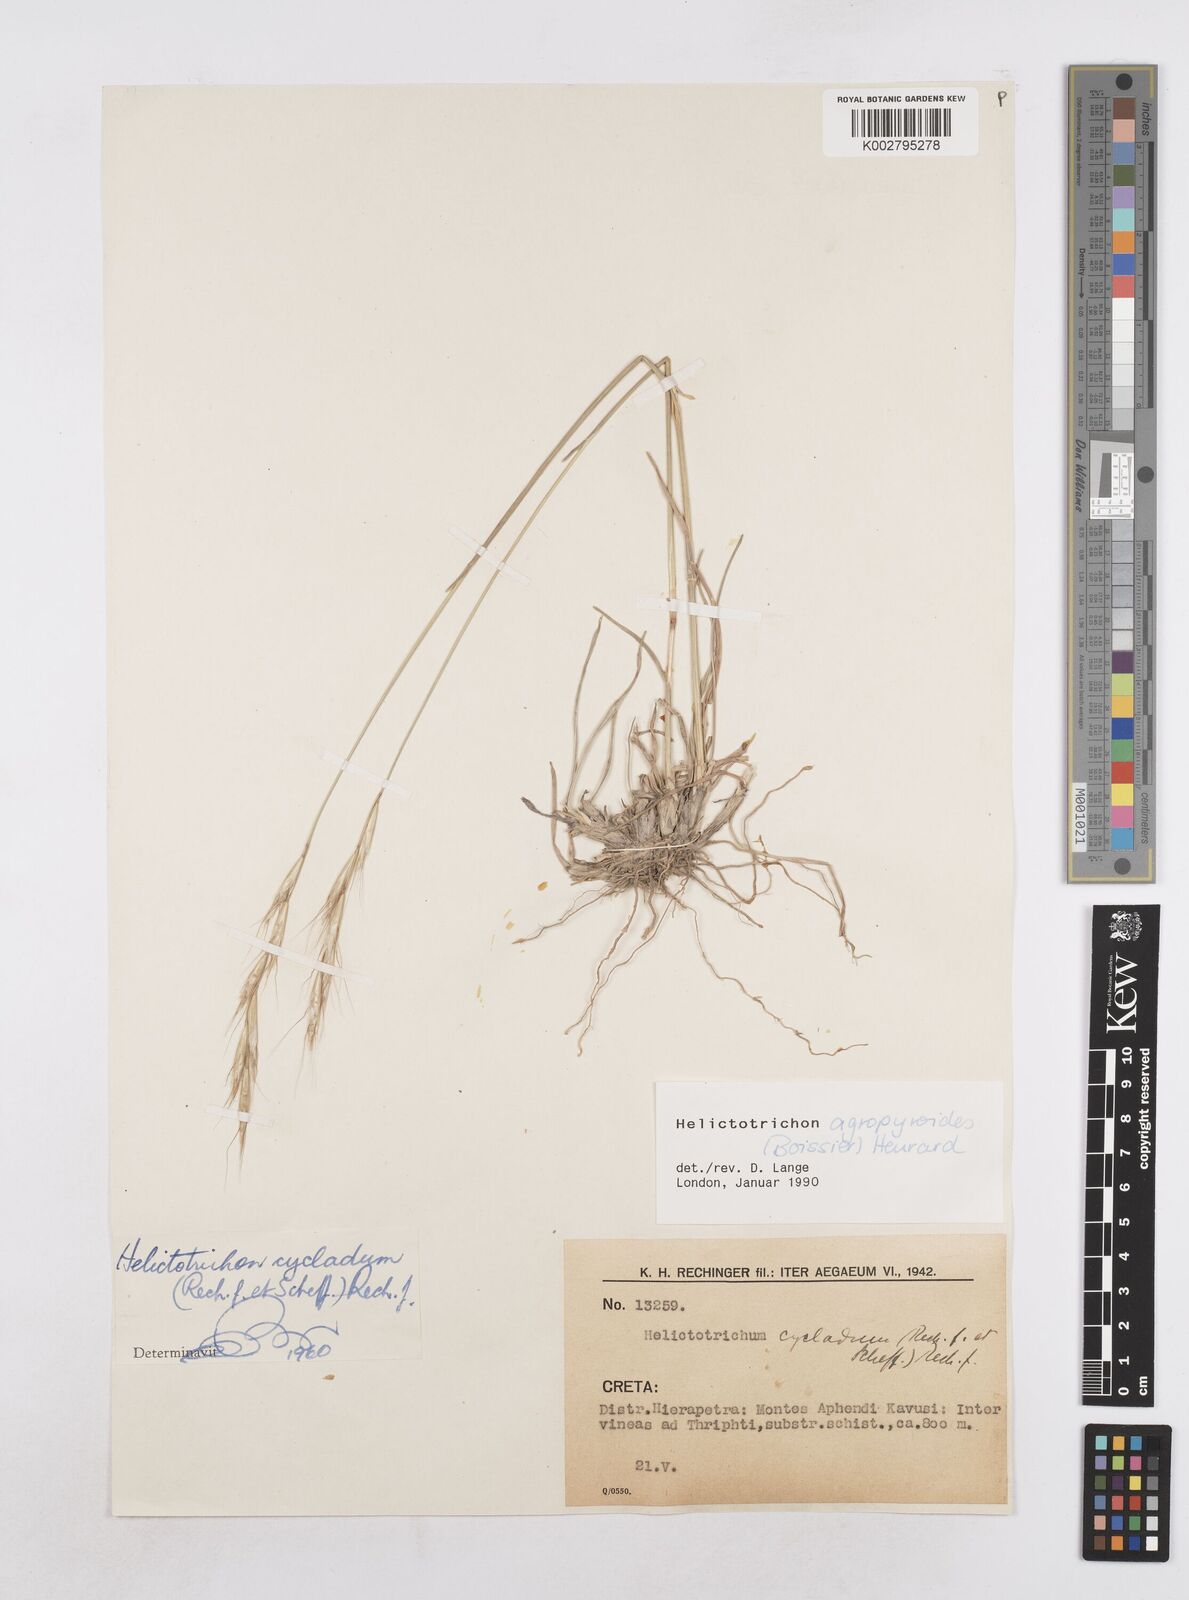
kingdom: Plantae
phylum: Tracheophyta
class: Liliopsida
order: Poales
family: Poaceae
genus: Helictochloa
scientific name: Helictochloa agropyroides
